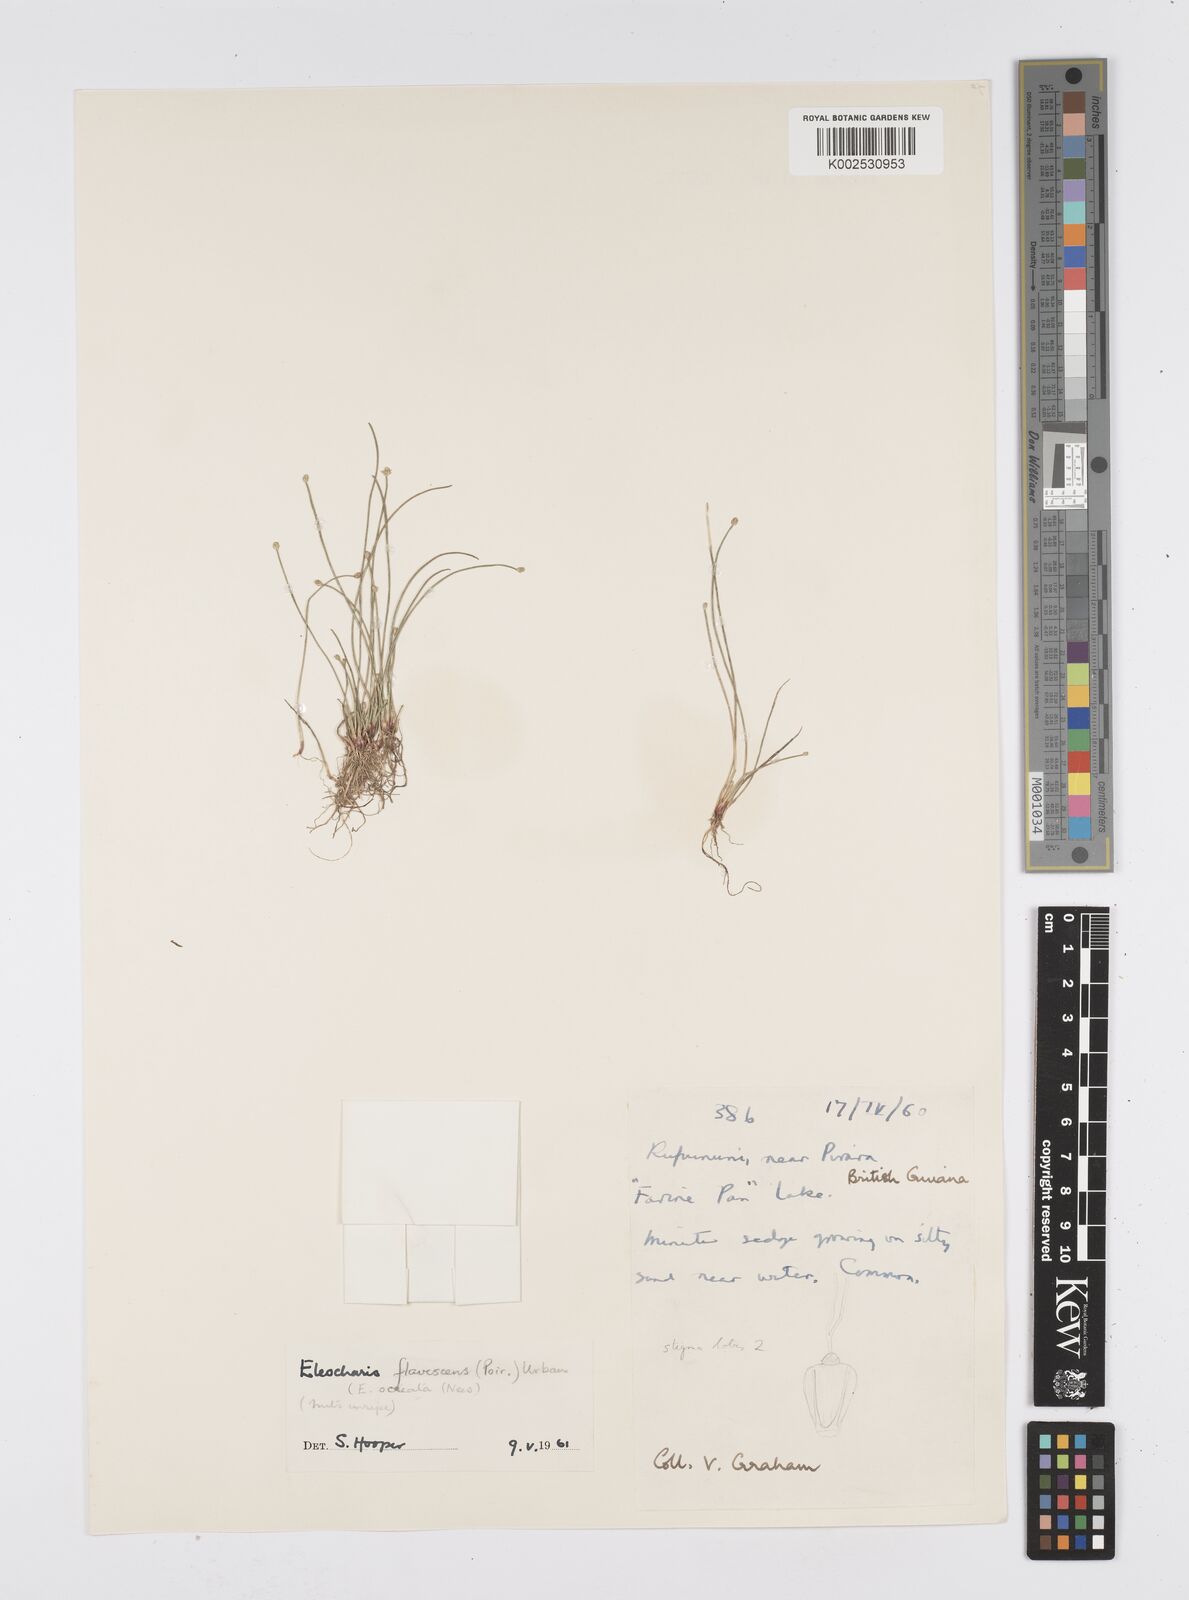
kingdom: Plantae
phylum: Tracheophyta
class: Liliopsida
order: Poales
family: Cyperaceae
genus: Eleocharis
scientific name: Eleocharis flavescens
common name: Yellow spikerush
